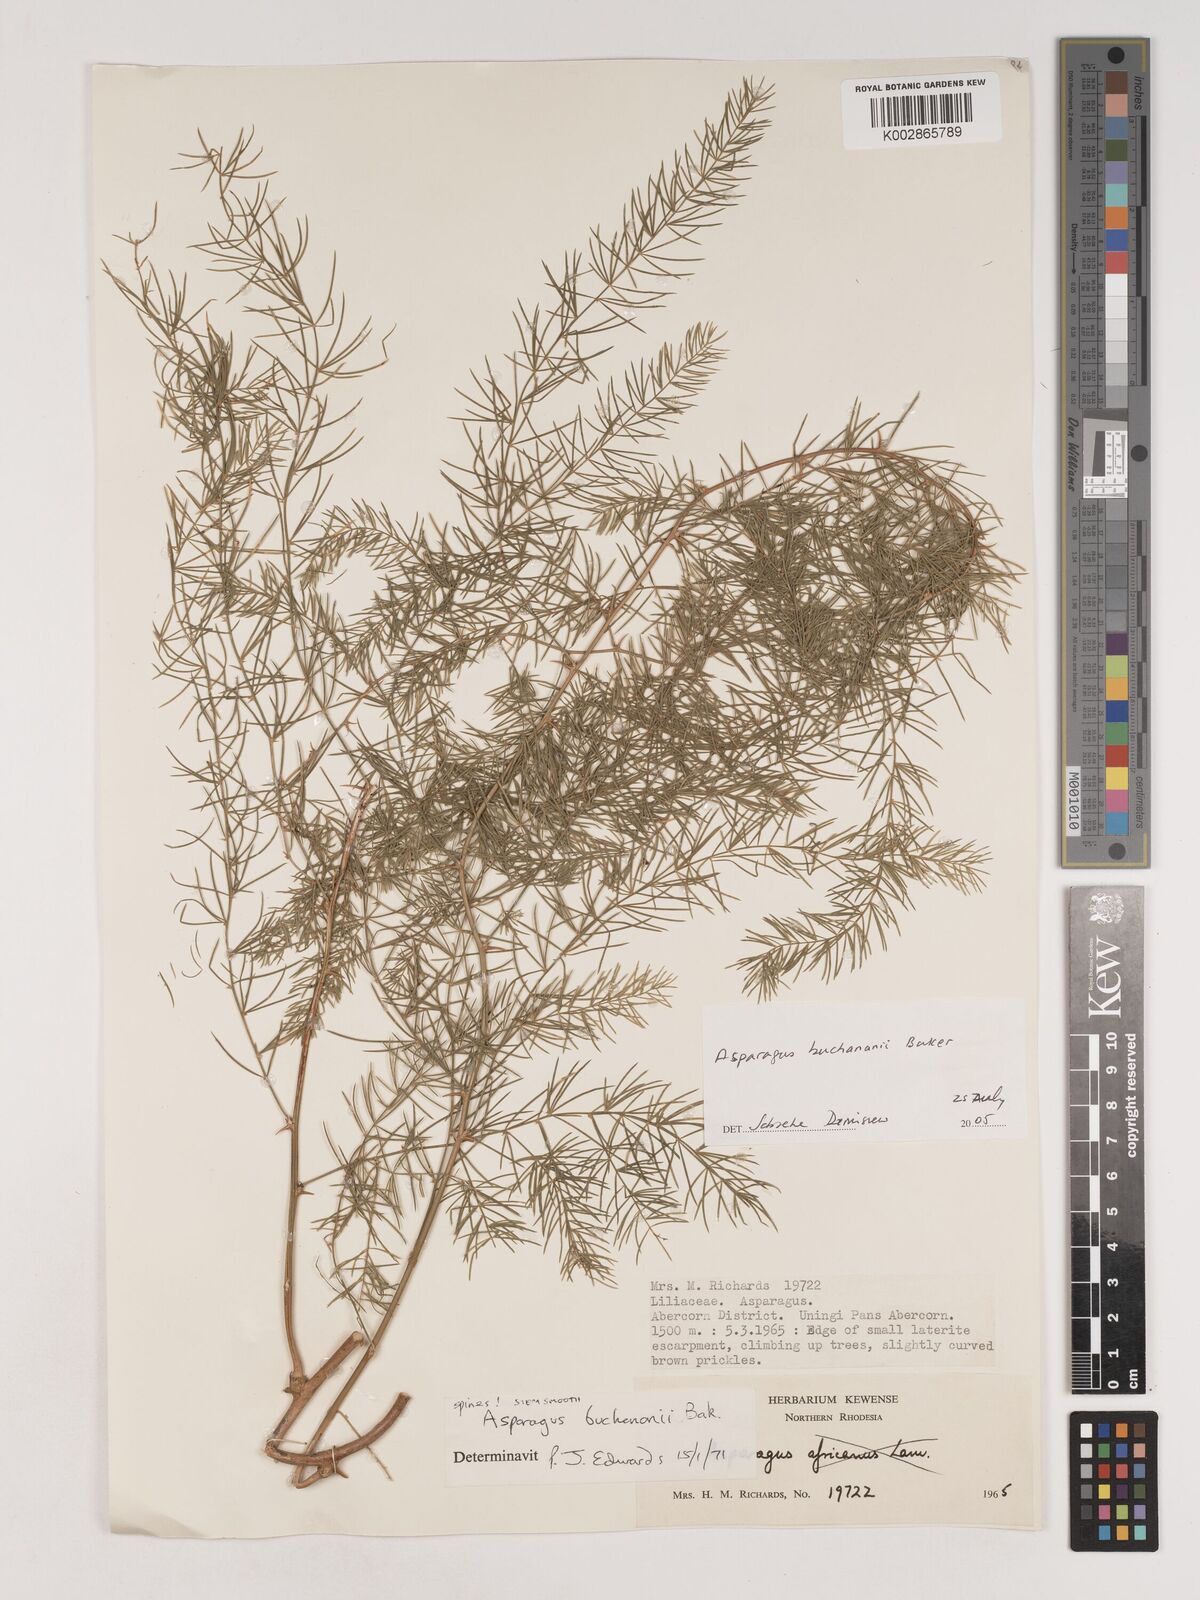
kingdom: Plantae
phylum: Tracheophyta
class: Liliopsida
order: Asparagales
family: Asparagaceae
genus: Asparagus
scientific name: Asparagus buchananii
